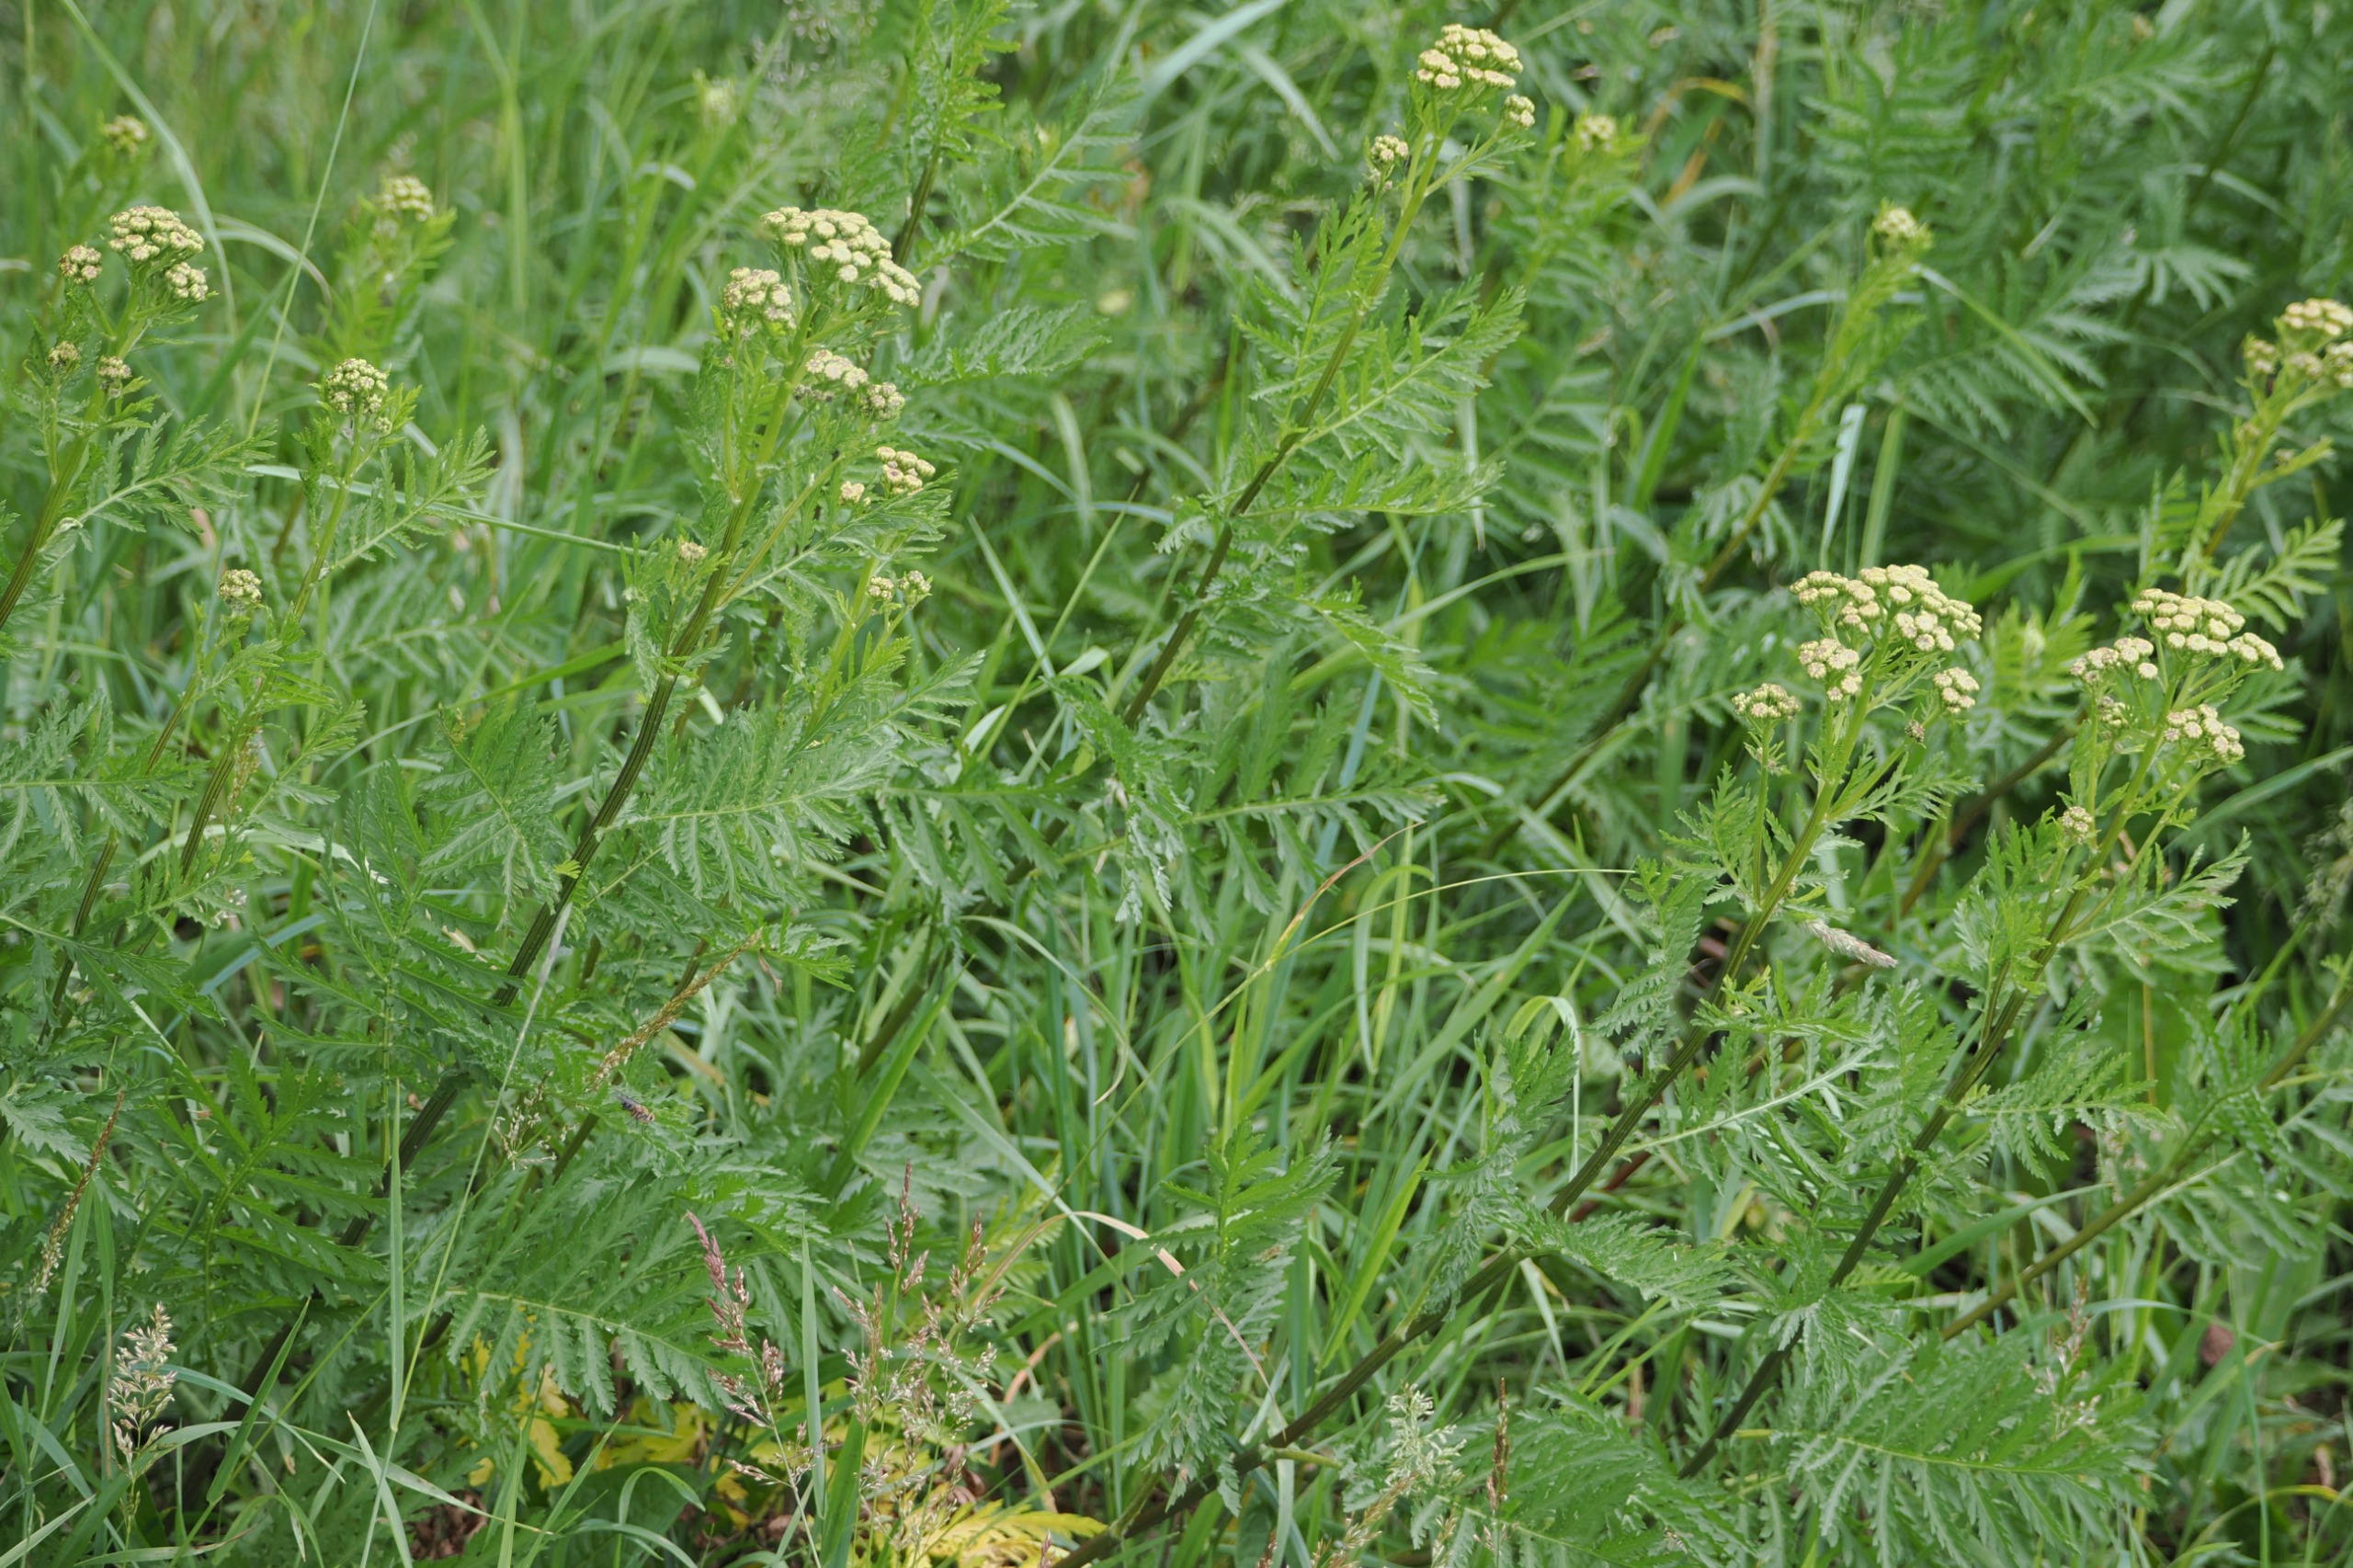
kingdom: Plantae
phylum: Tracheophyta
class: Magnoliopsida
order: Asterales
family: Asteraceae
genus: Tanacetum
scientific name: Tanacetum vulgare
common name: Rejnfan
